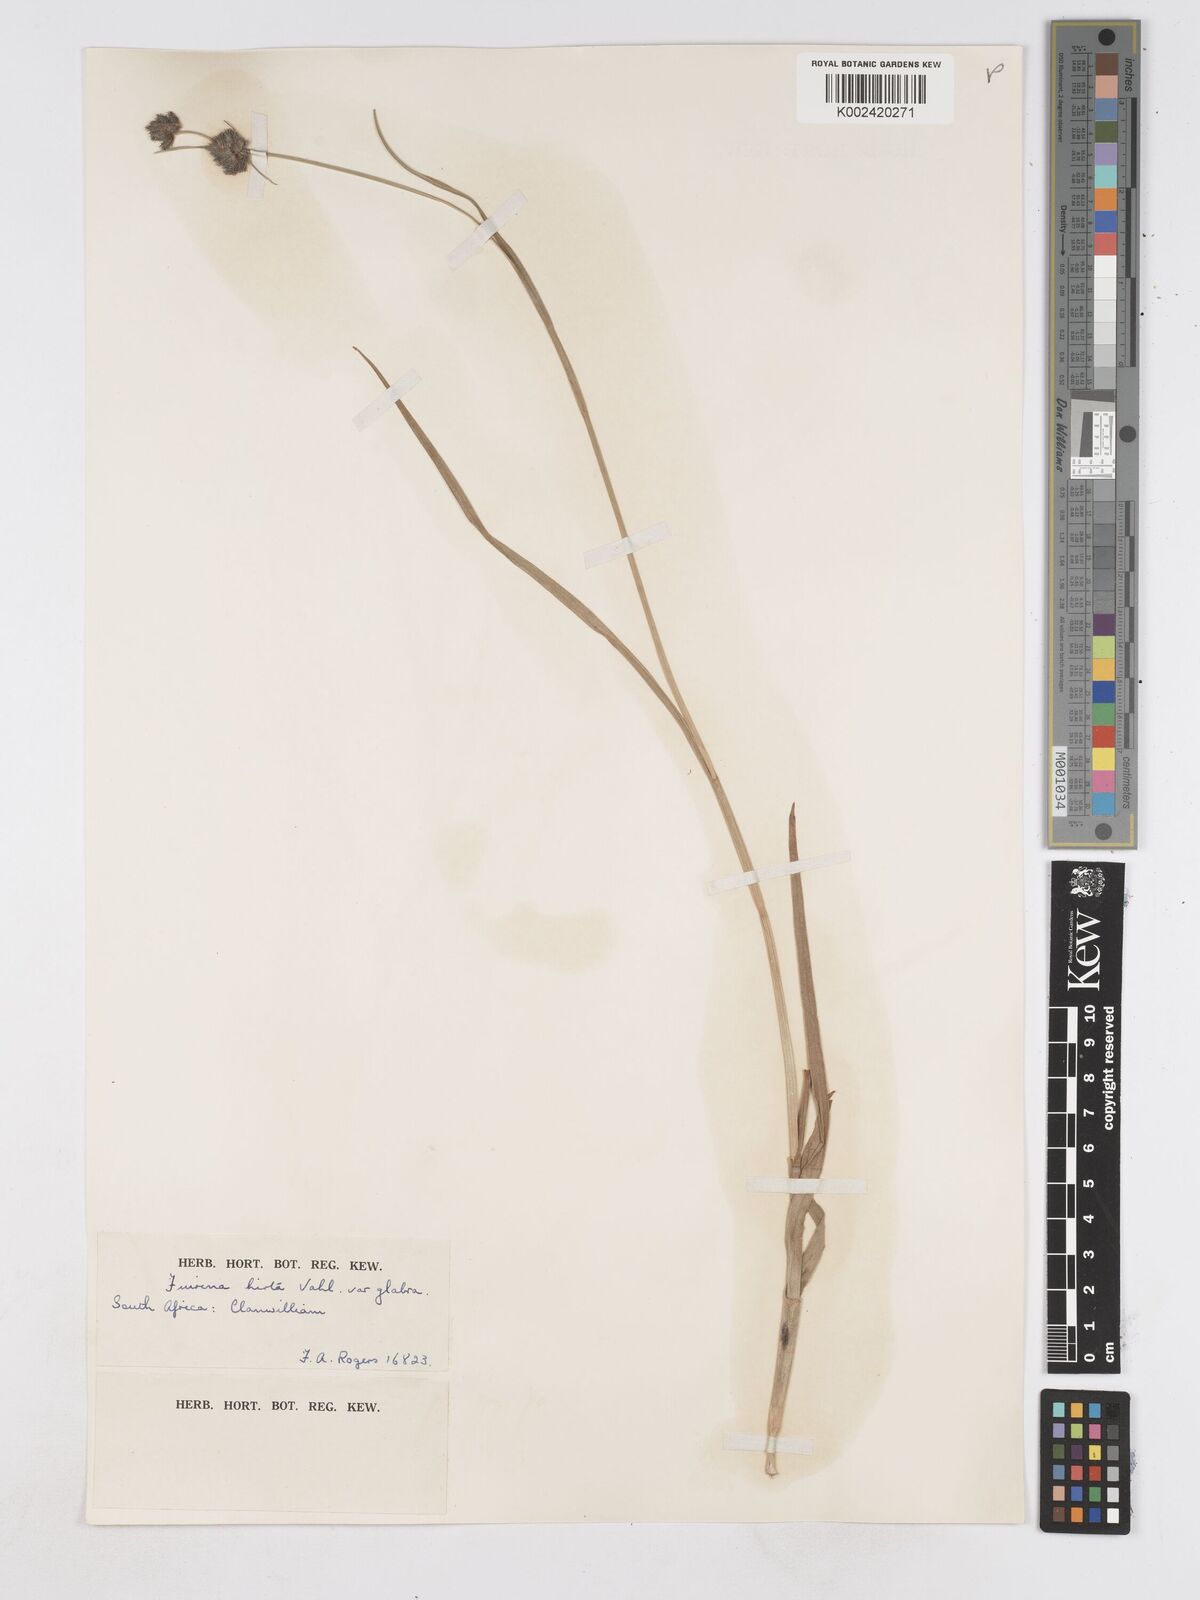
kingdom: Plantae
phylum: Tracheophyta
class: Liliopsida
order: Poales
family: Cyperaceae
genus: Fuirena
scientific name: Fuirena hirsuta
